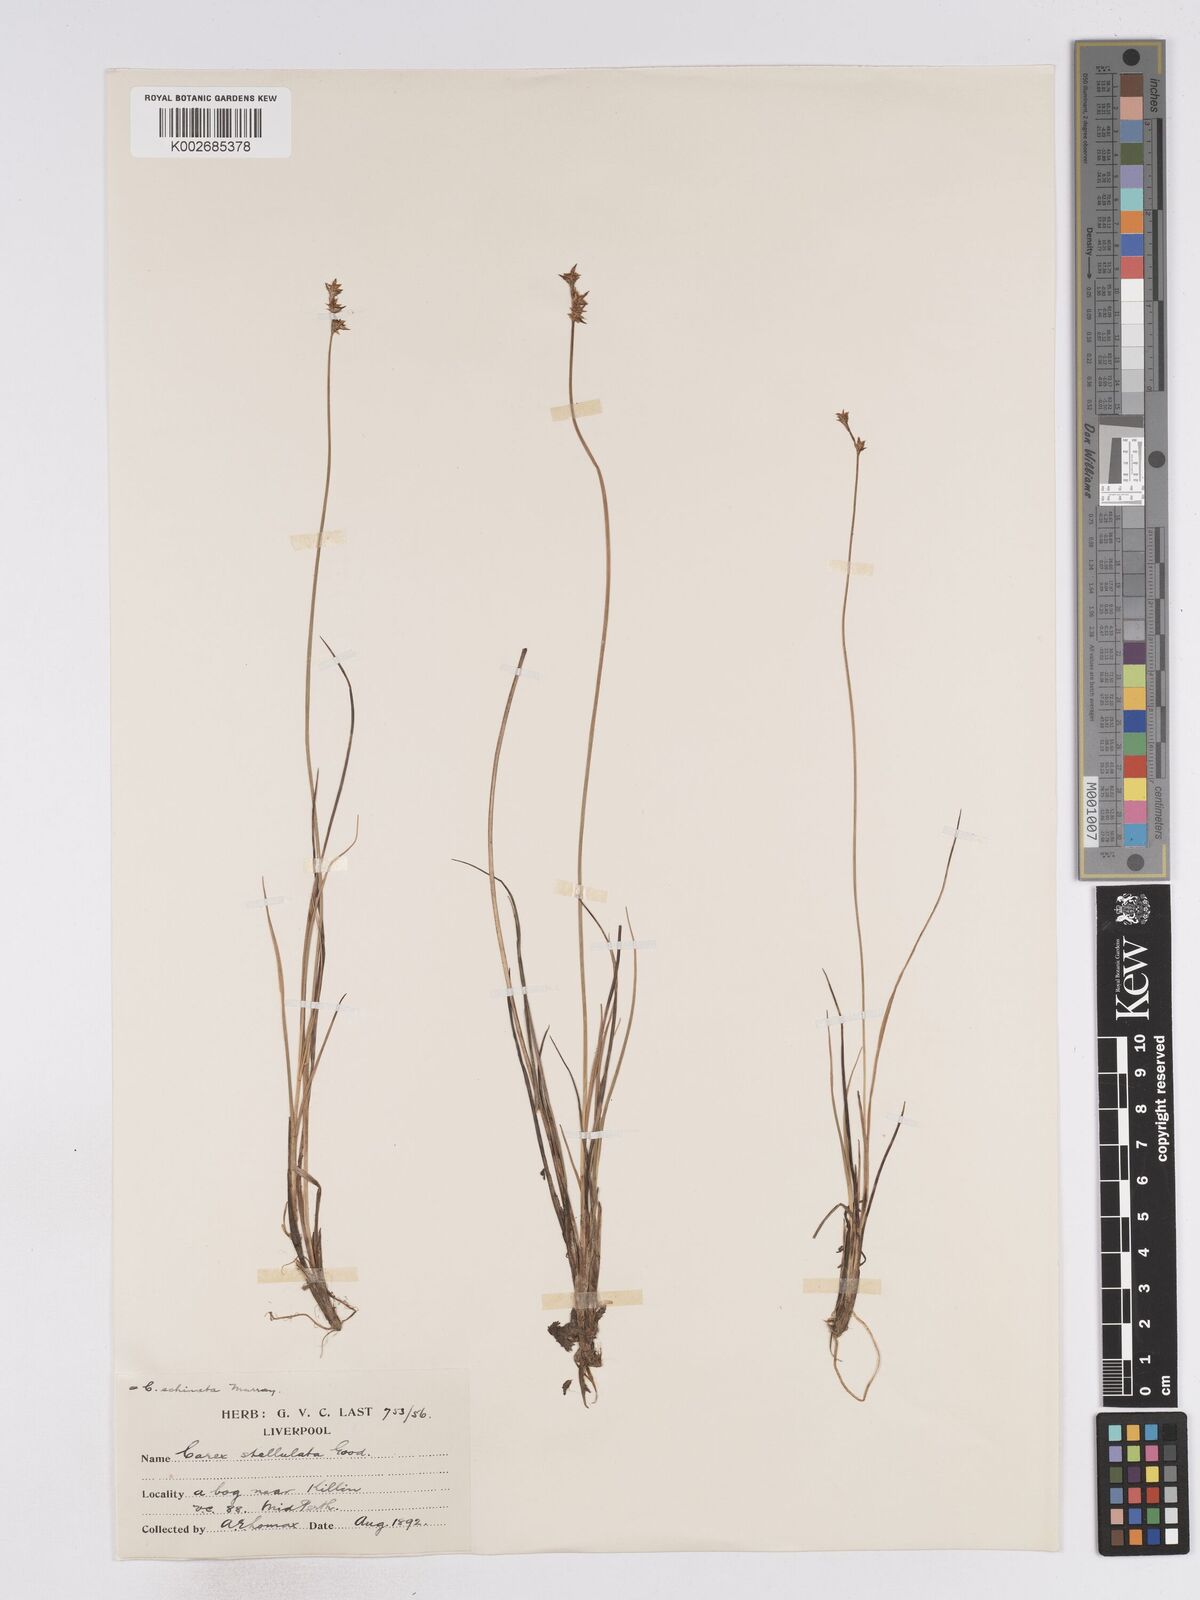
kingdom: Plantae
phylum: Tracheophyta
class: Liliopsida
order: Poales
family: Cyperaceae
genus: Carex
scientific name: Carex echinata
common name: Star sedge
